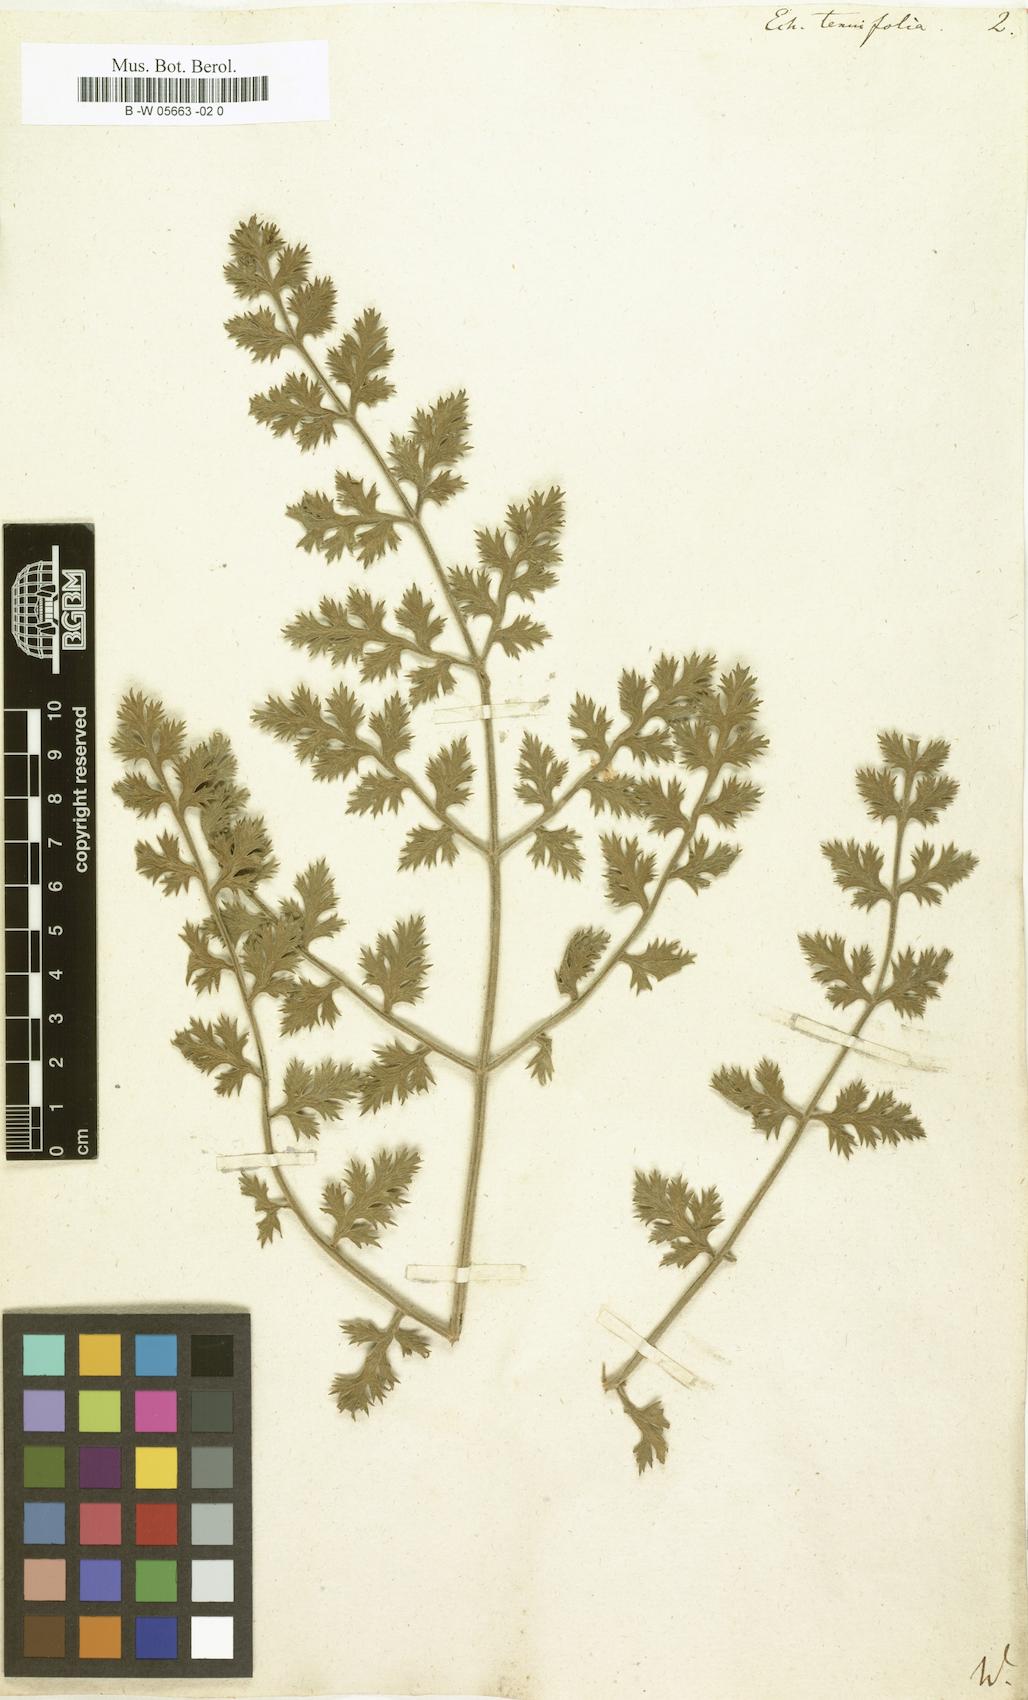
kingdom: Plantae
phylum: Tracheophyta
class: Magnoliopsida
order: Apiales
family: Apiaceae
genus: Echinophora
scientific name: Echinophora tenuifolia
